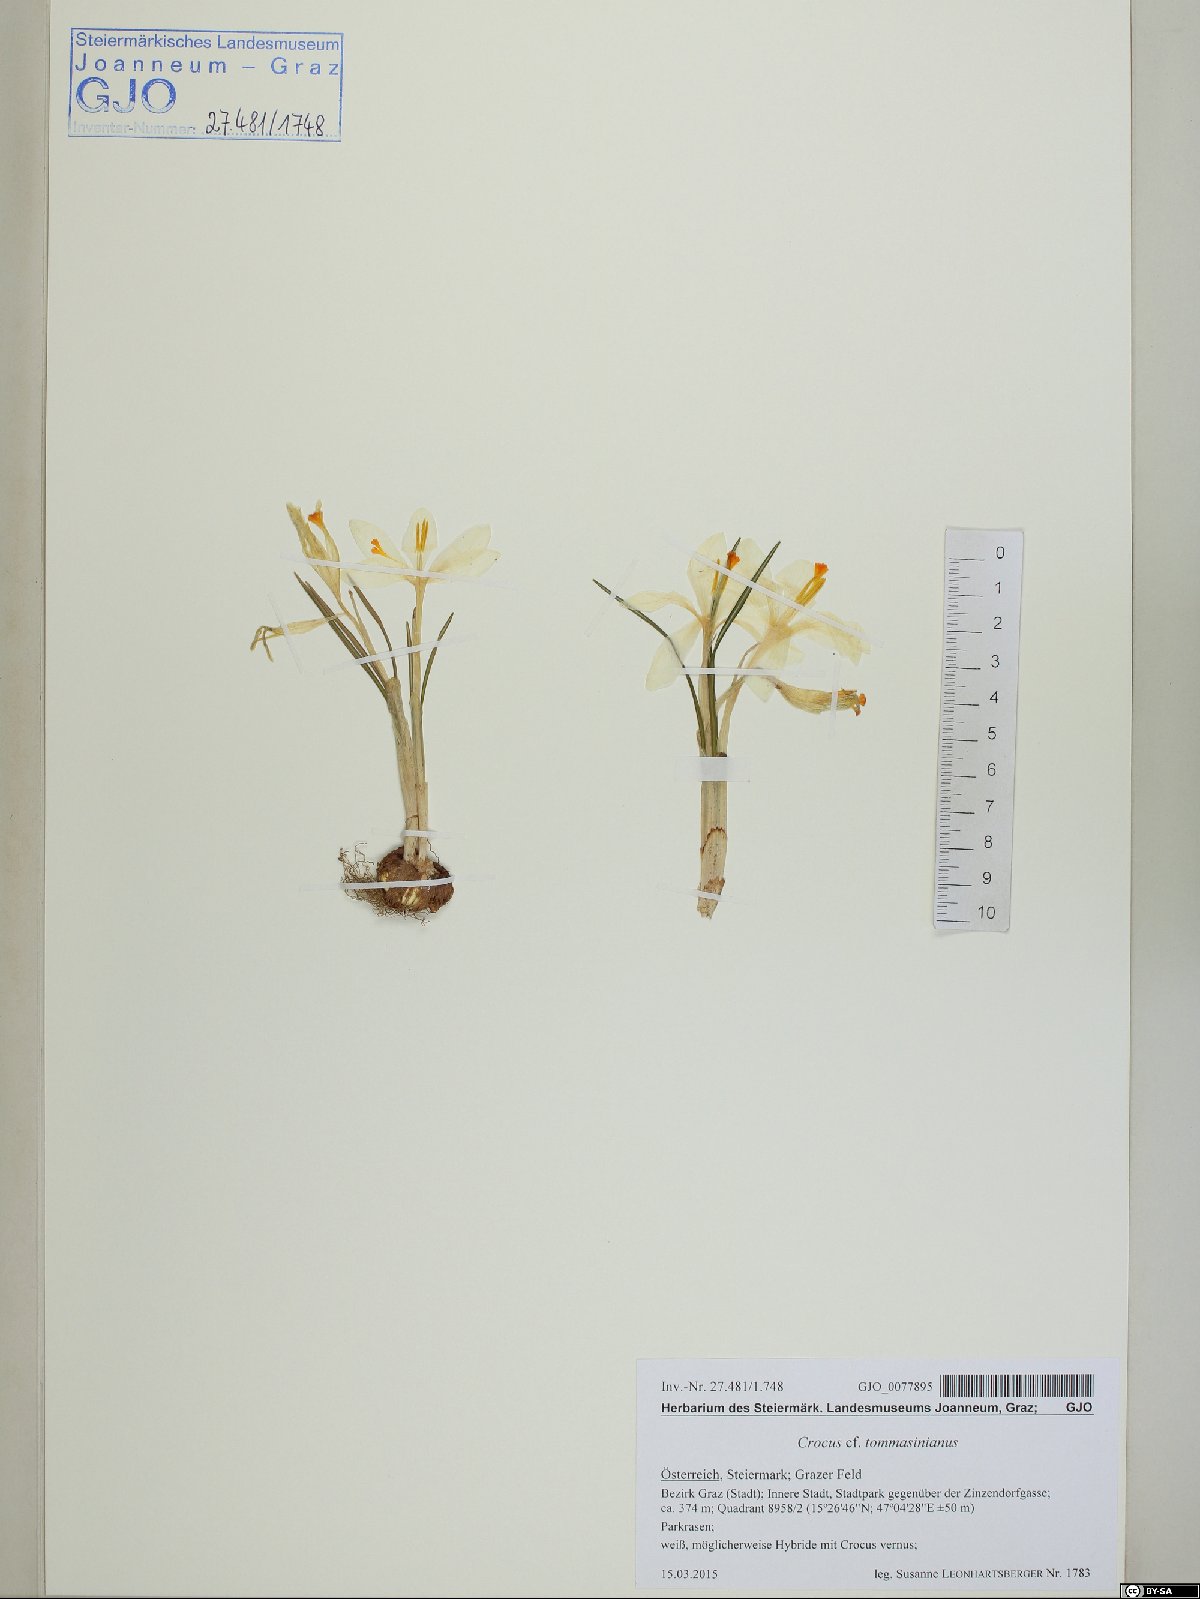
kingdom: Plantae
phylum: Tracheophyta
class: Liliopsida
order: Asparagales
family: Iridaceae
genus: Crocus
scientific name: Crocus tommasinianus
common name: Early crocus
